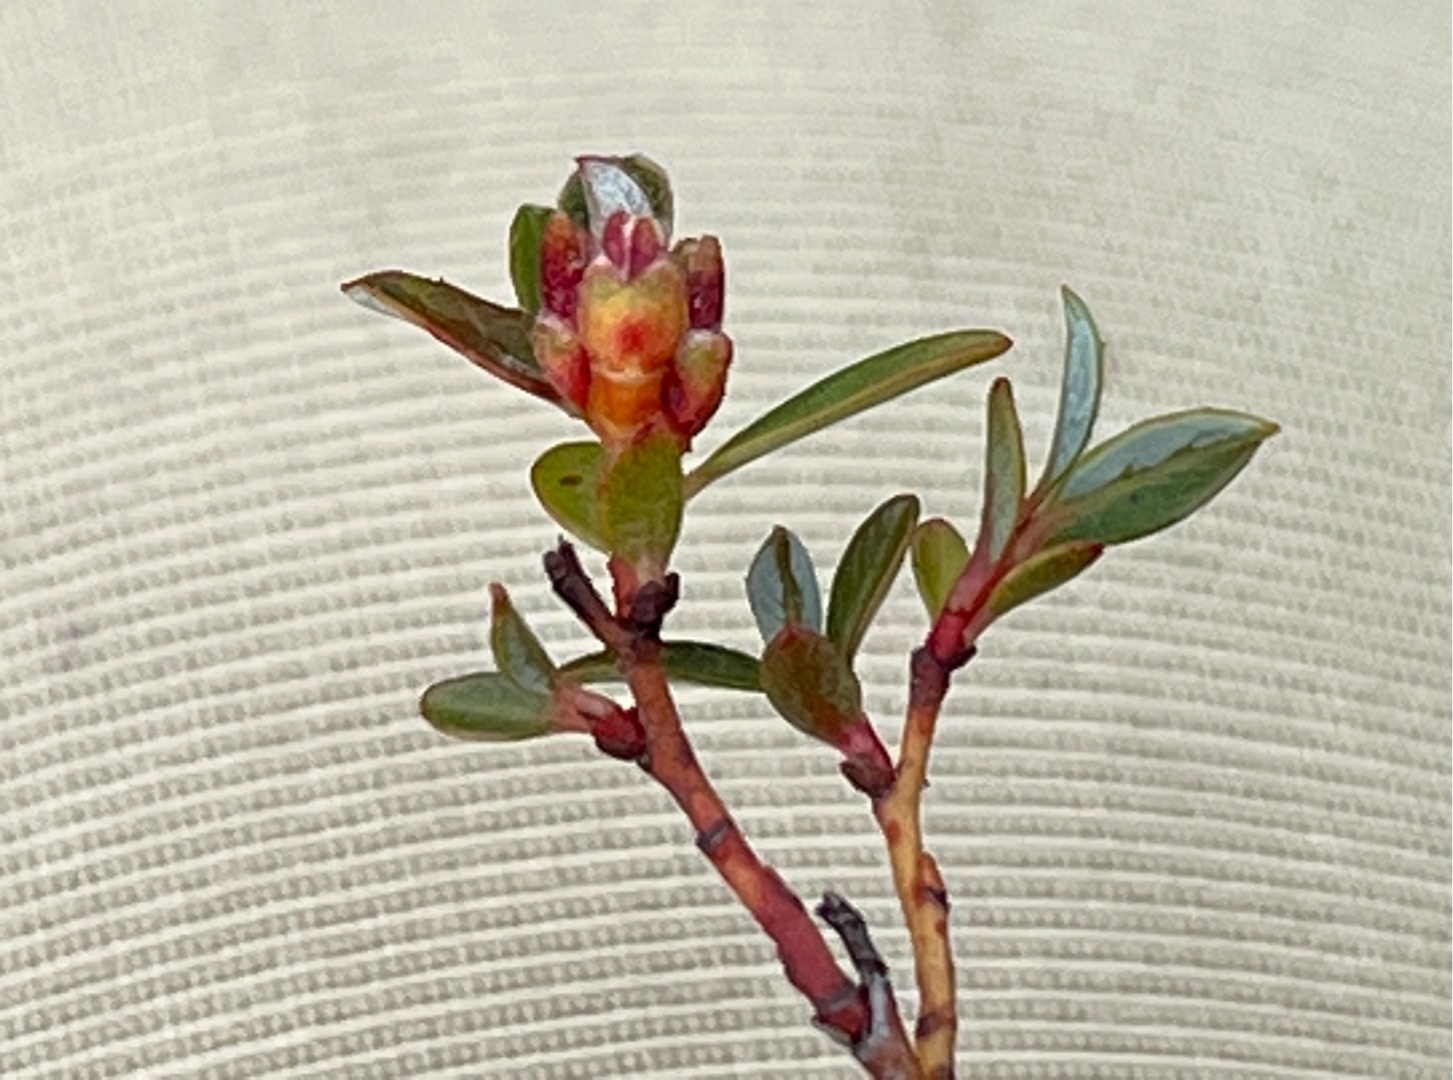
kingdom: Animalia
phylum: Arthropoda
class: Insecta
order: Diptera
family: Cecidomyiidae
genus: Rabdophaga
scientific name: Rabdophaga clavifex
